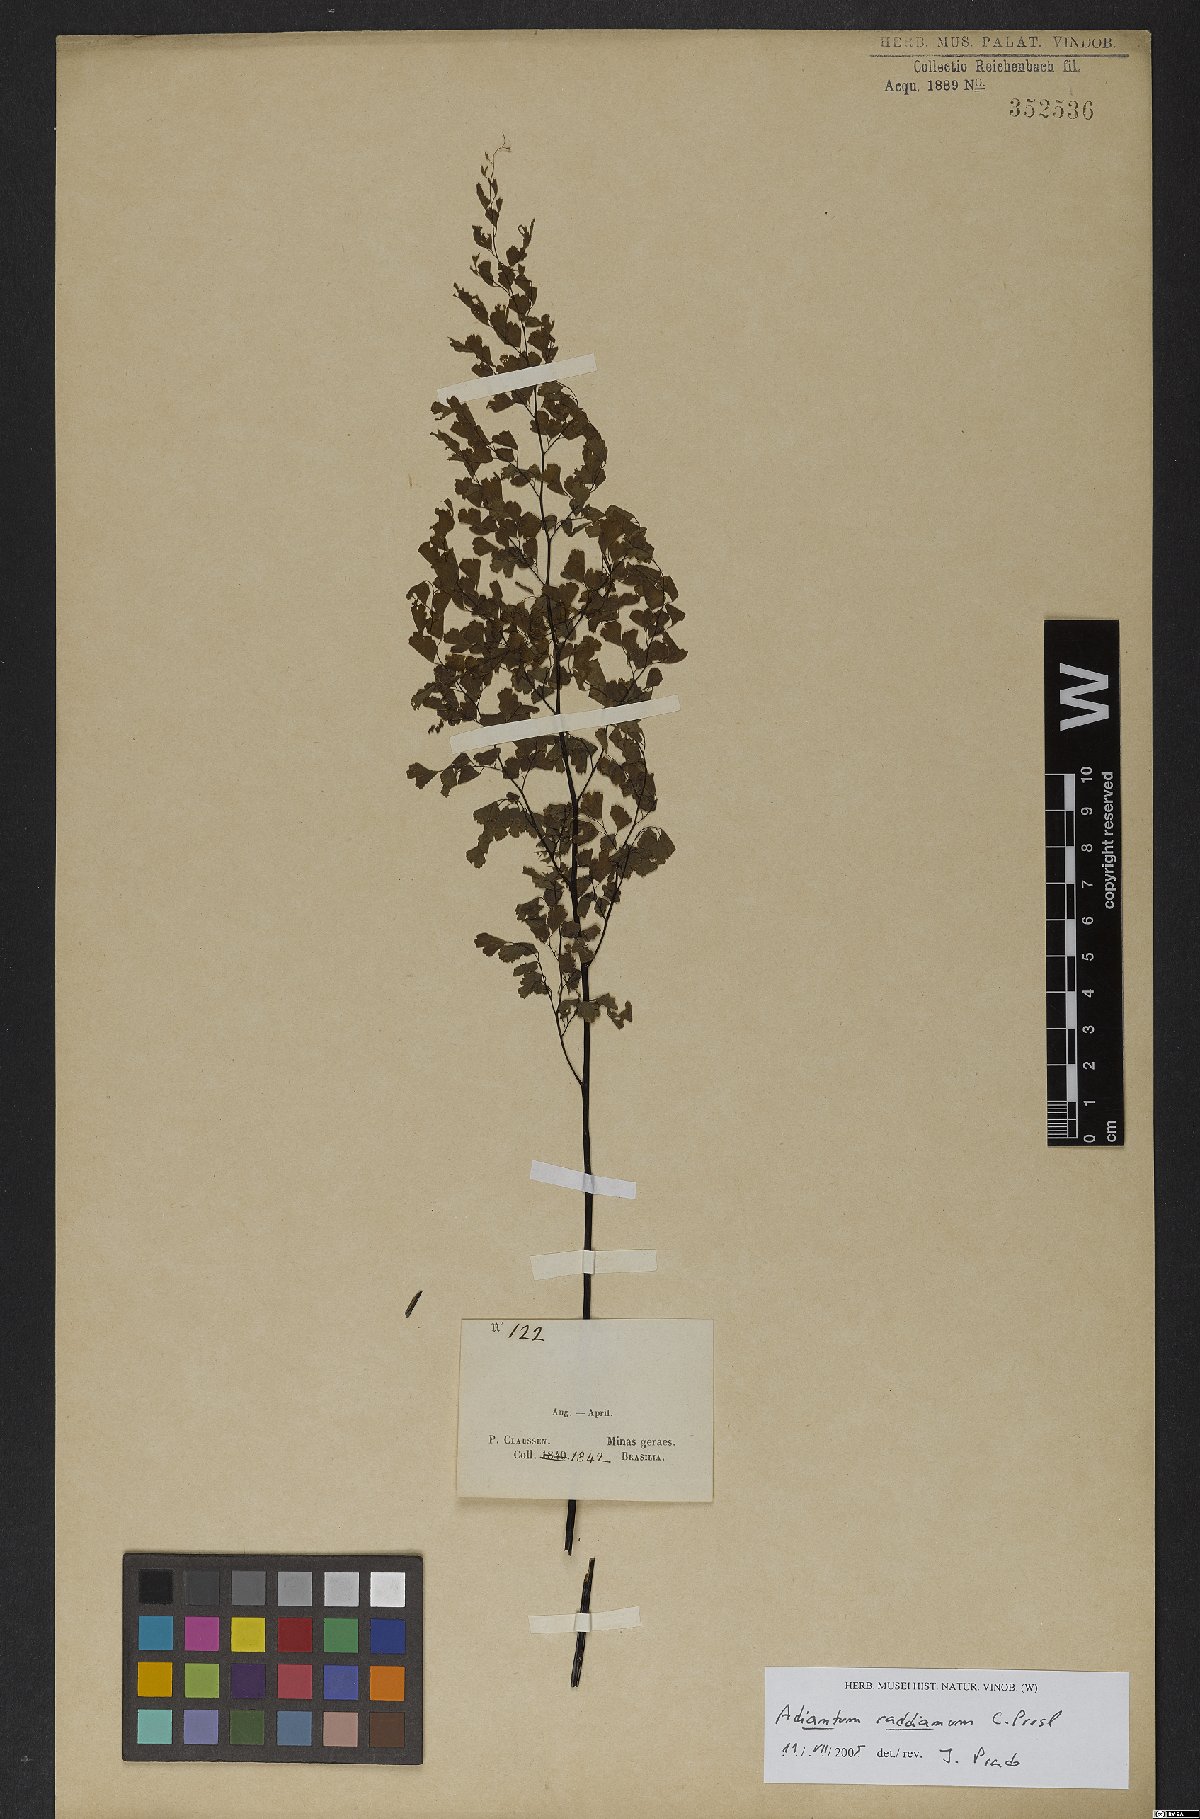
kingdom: Plantae
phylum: Tracheophyta
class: Polypodiopsida
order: Polypodiales
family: Pteridaceae
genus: Adiantum
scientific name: Adiantum raddianum
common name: Delta maidenhair fern
